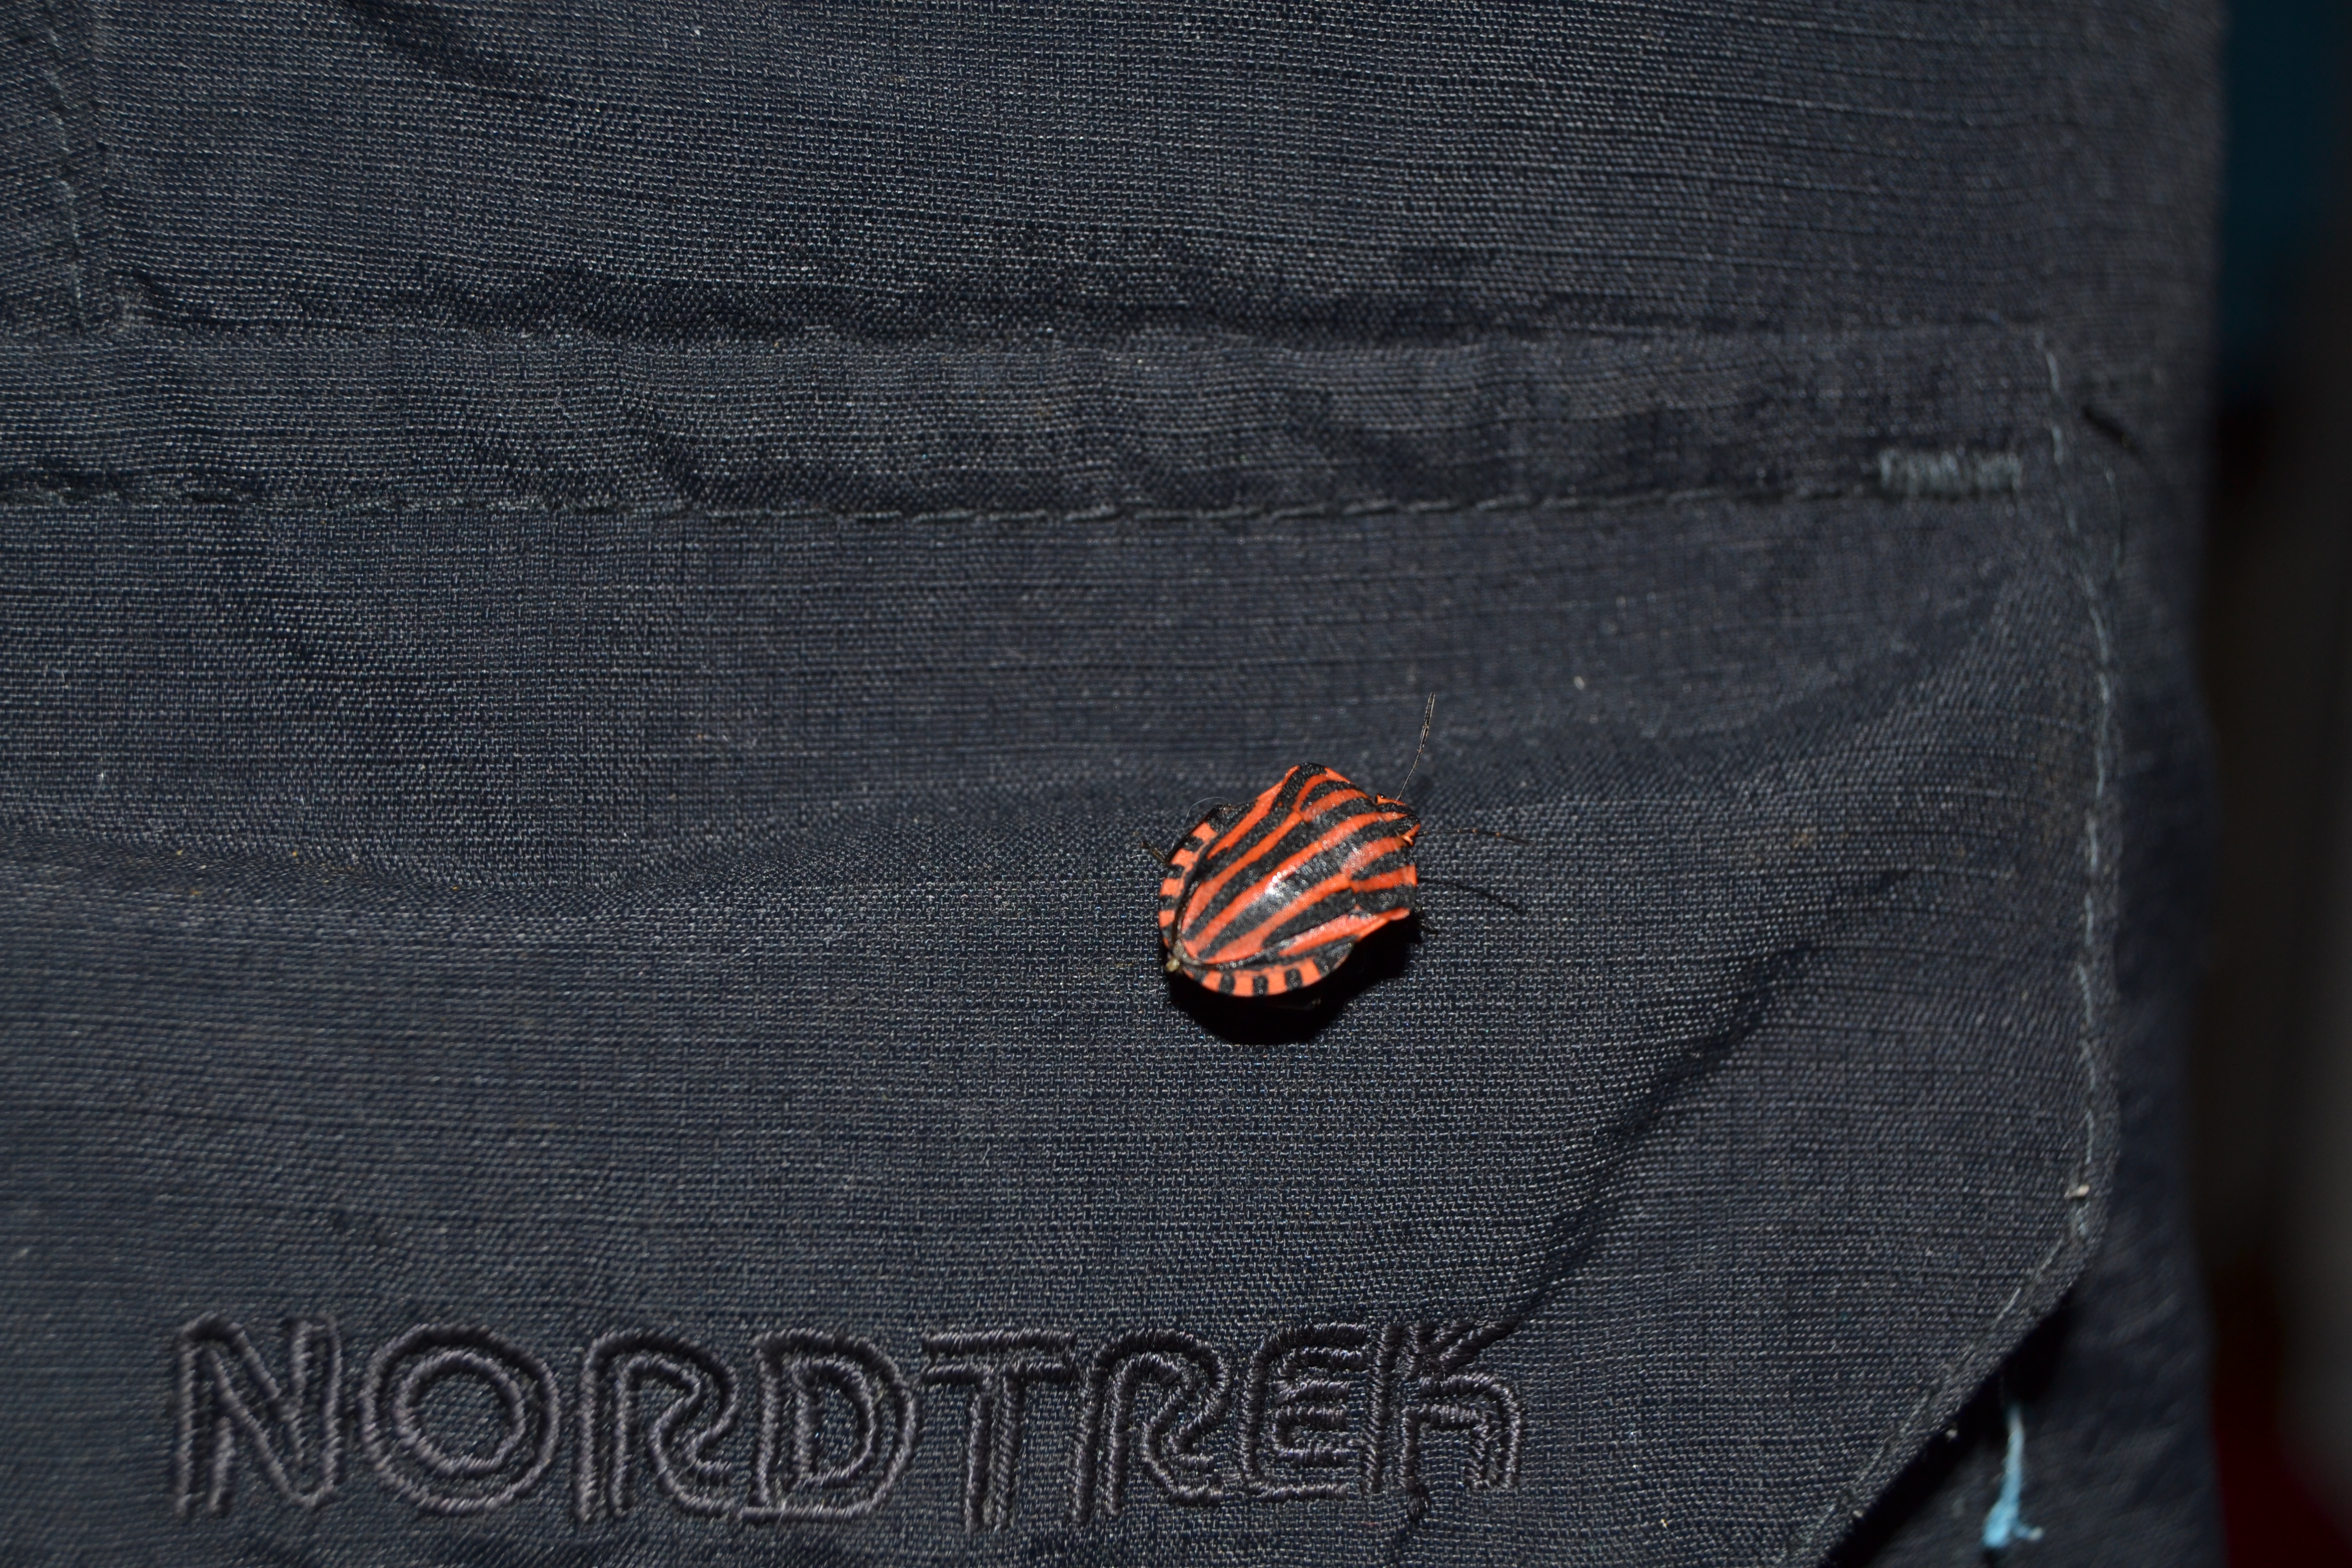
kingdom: Animalia
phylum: Arthropoda
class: Insecta
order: Hemiptera
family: Pentatomidae
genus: Graphosoma
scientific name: Graphosoma italicum
